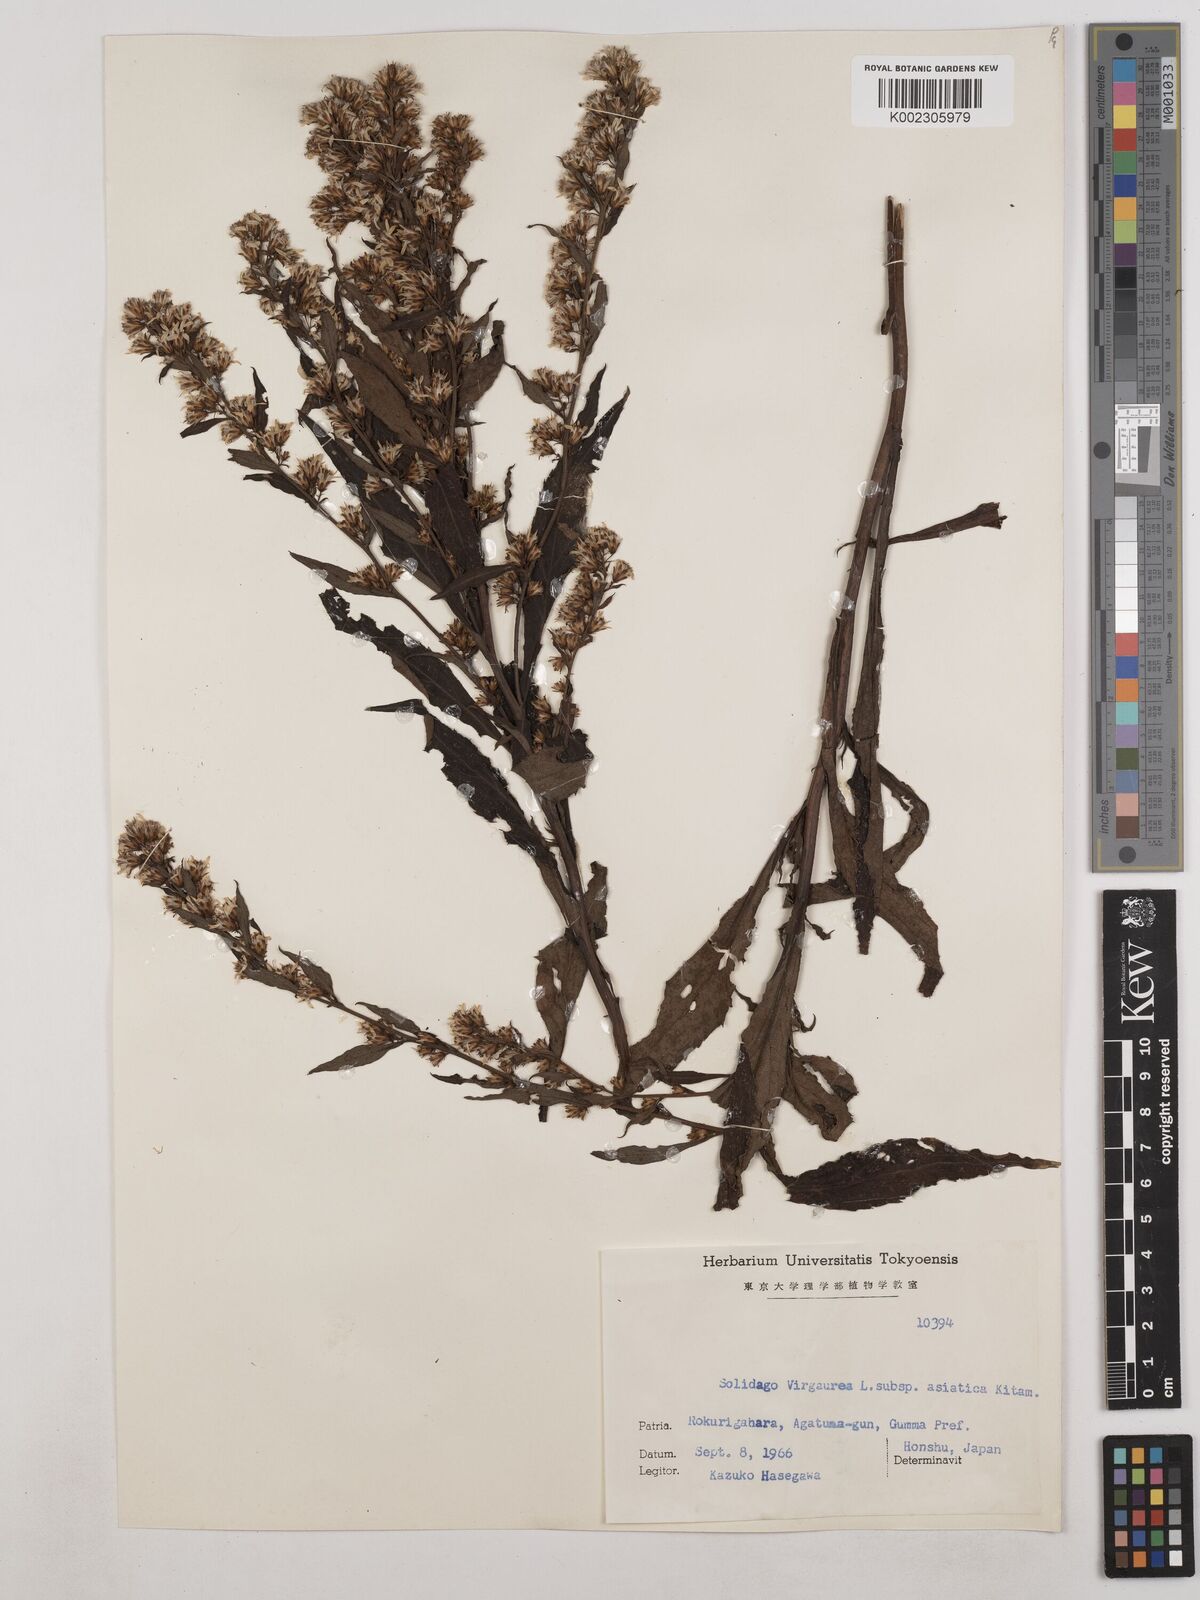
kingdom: Plantae
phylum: Tracheophyta
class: Magnoliopsida
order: Asterales
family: Asteraceae
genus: Solidago
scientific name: Solidago virgaurea
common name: Goldenrod
